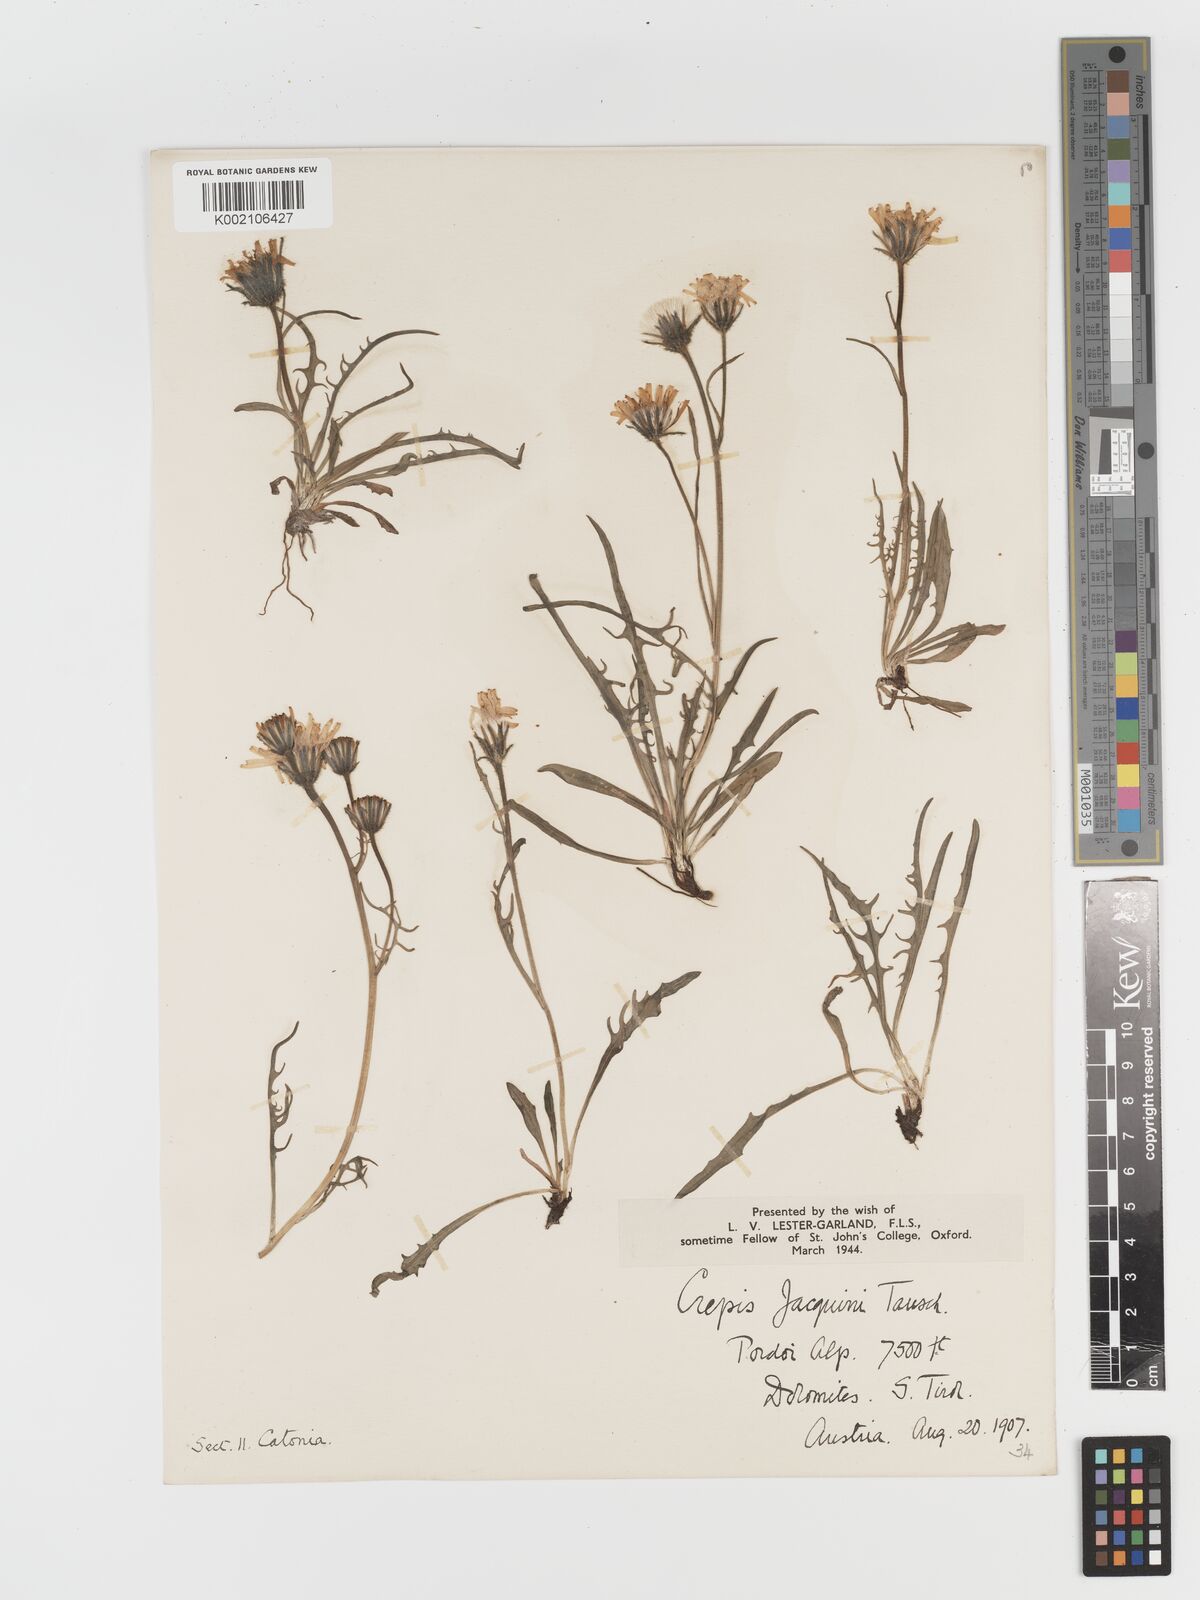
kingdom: Plantae
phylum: Tracheophyta
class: Magnoliopsida
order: Asterales
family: Asteraceae
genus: Crepis
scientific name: Crepis jacquinii
